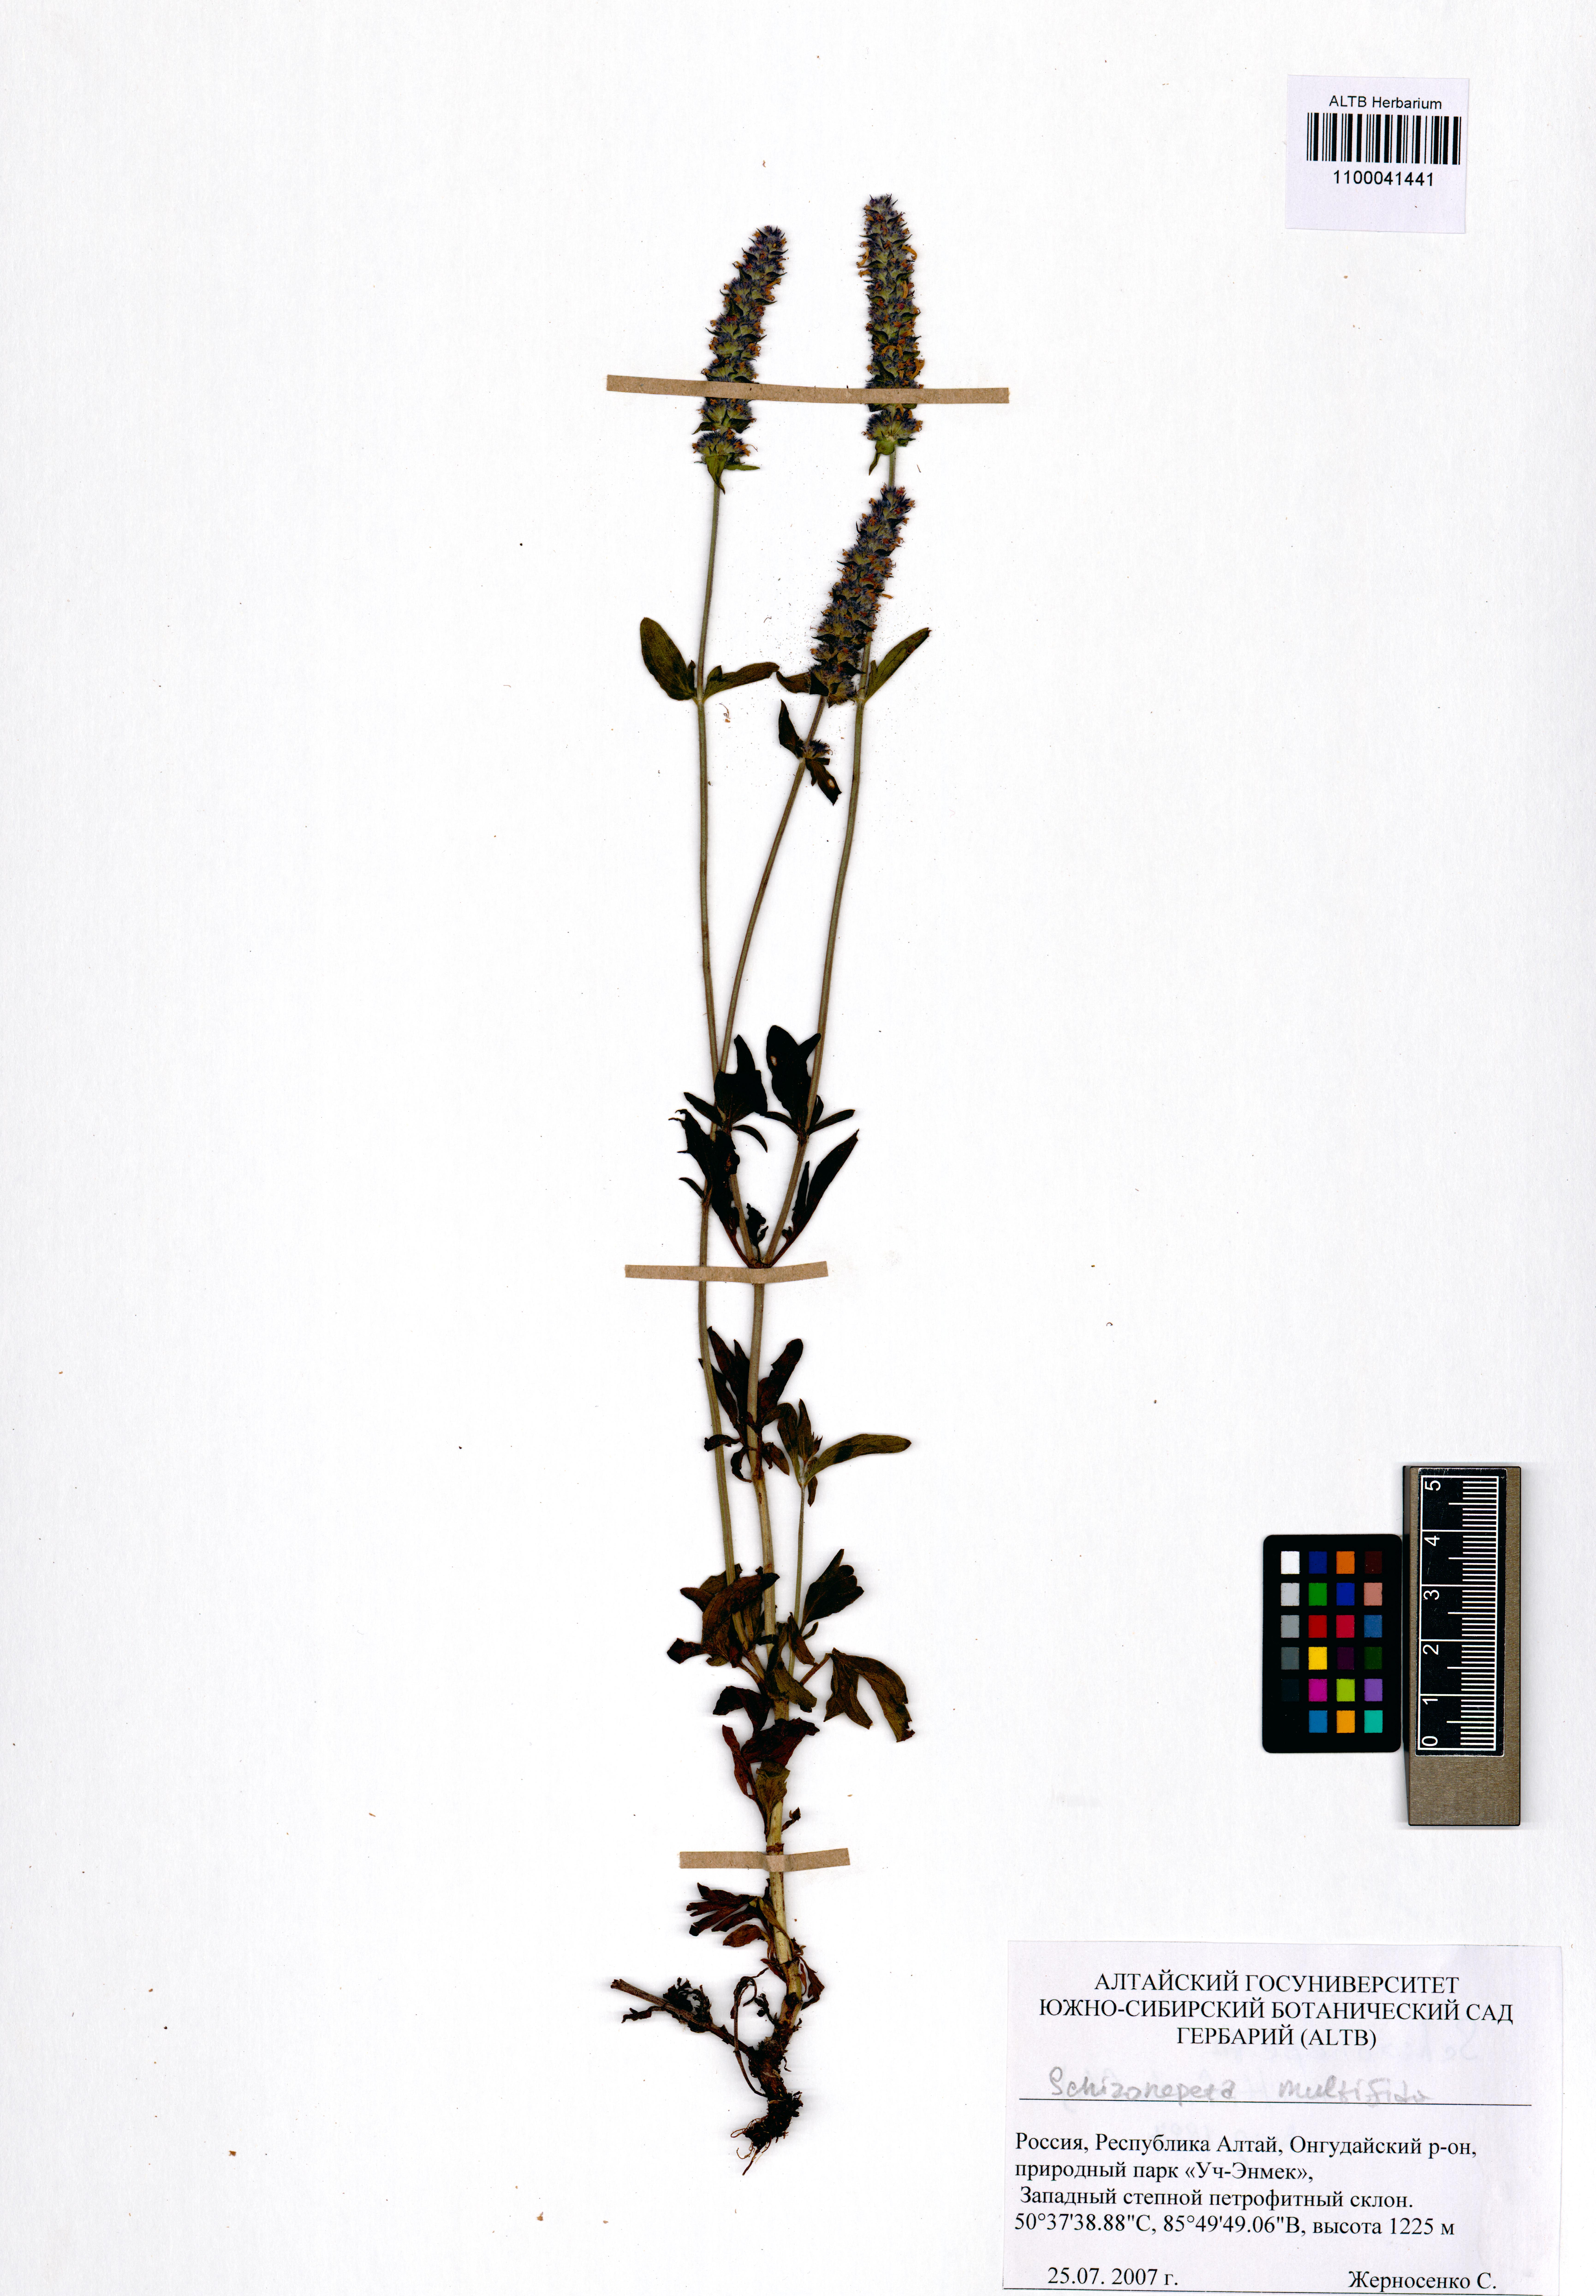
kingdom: Plantae
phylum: Tracheophyta
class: Magnoliopsida
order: Lamiales
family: Lamiaceae
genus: Nepeta
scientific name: Nepeta multifida
